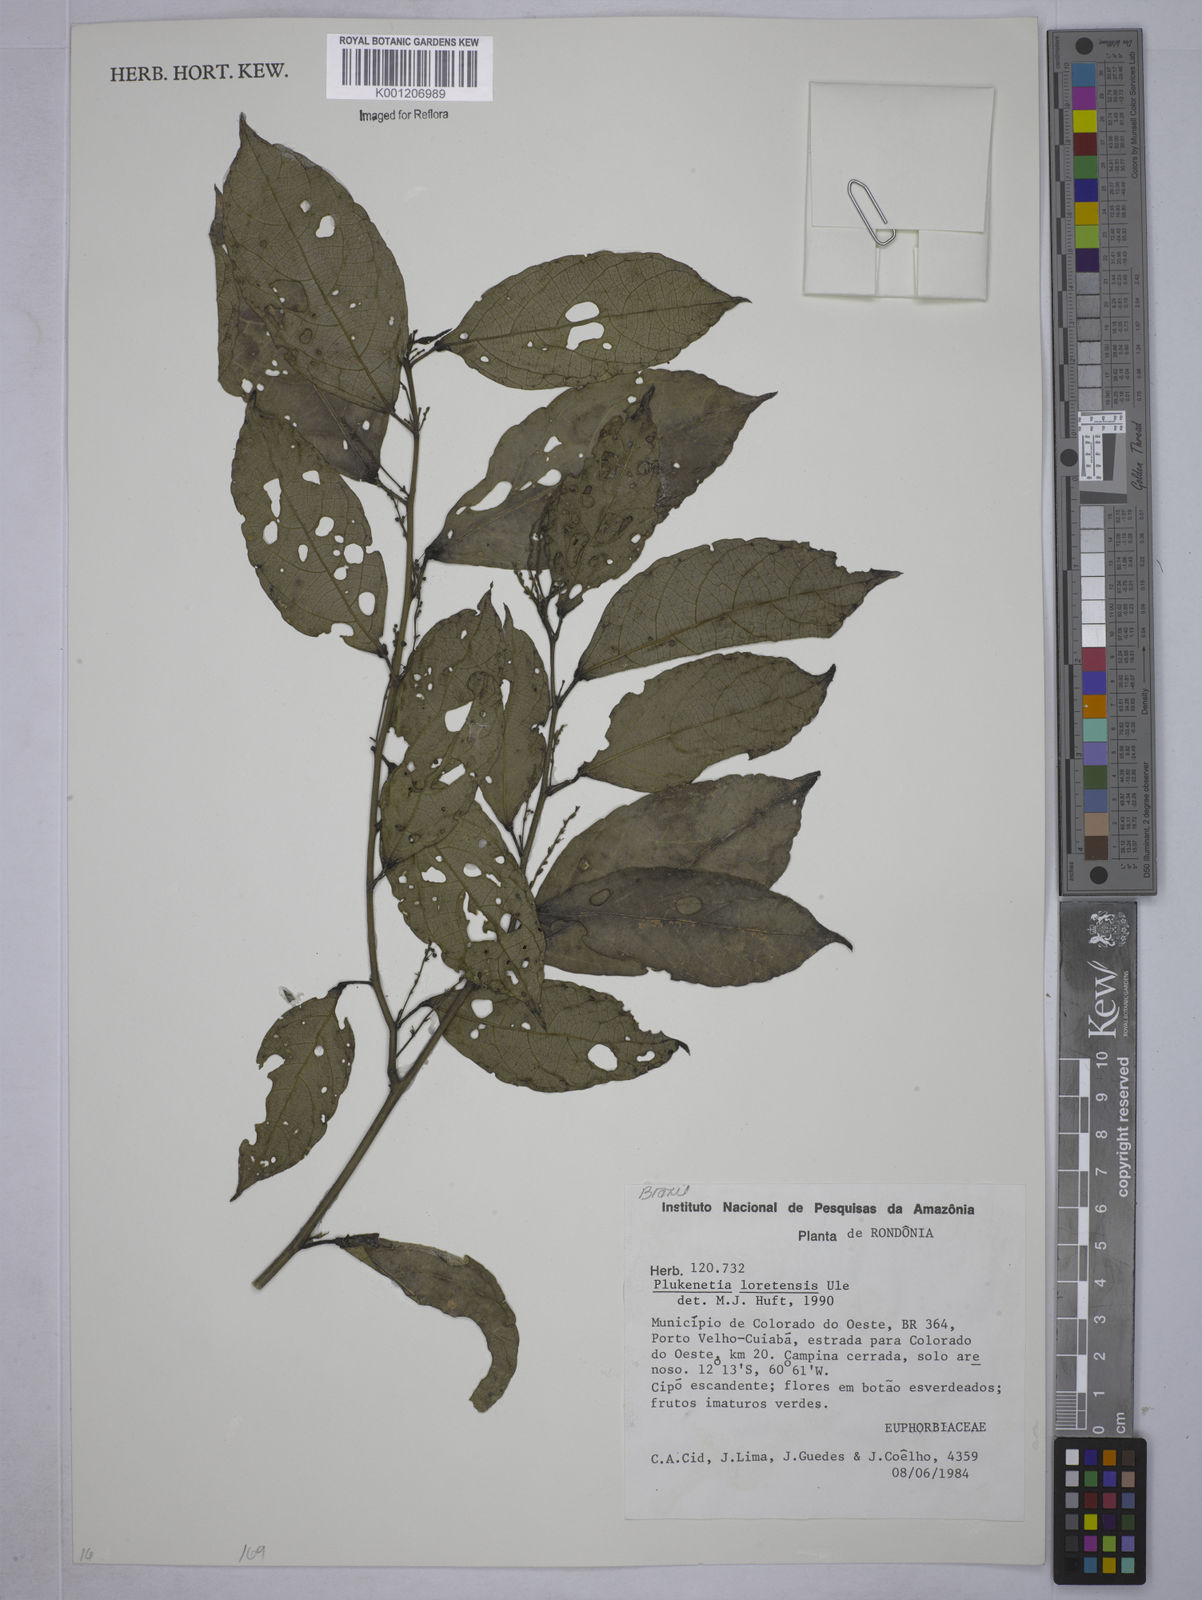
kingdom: Plantae
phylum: Tracheophyta
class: Magnoliopsida
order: Malpighiales
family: Euphorbiaceae
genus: Plukenetia
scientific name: Plukenetia loretensis
